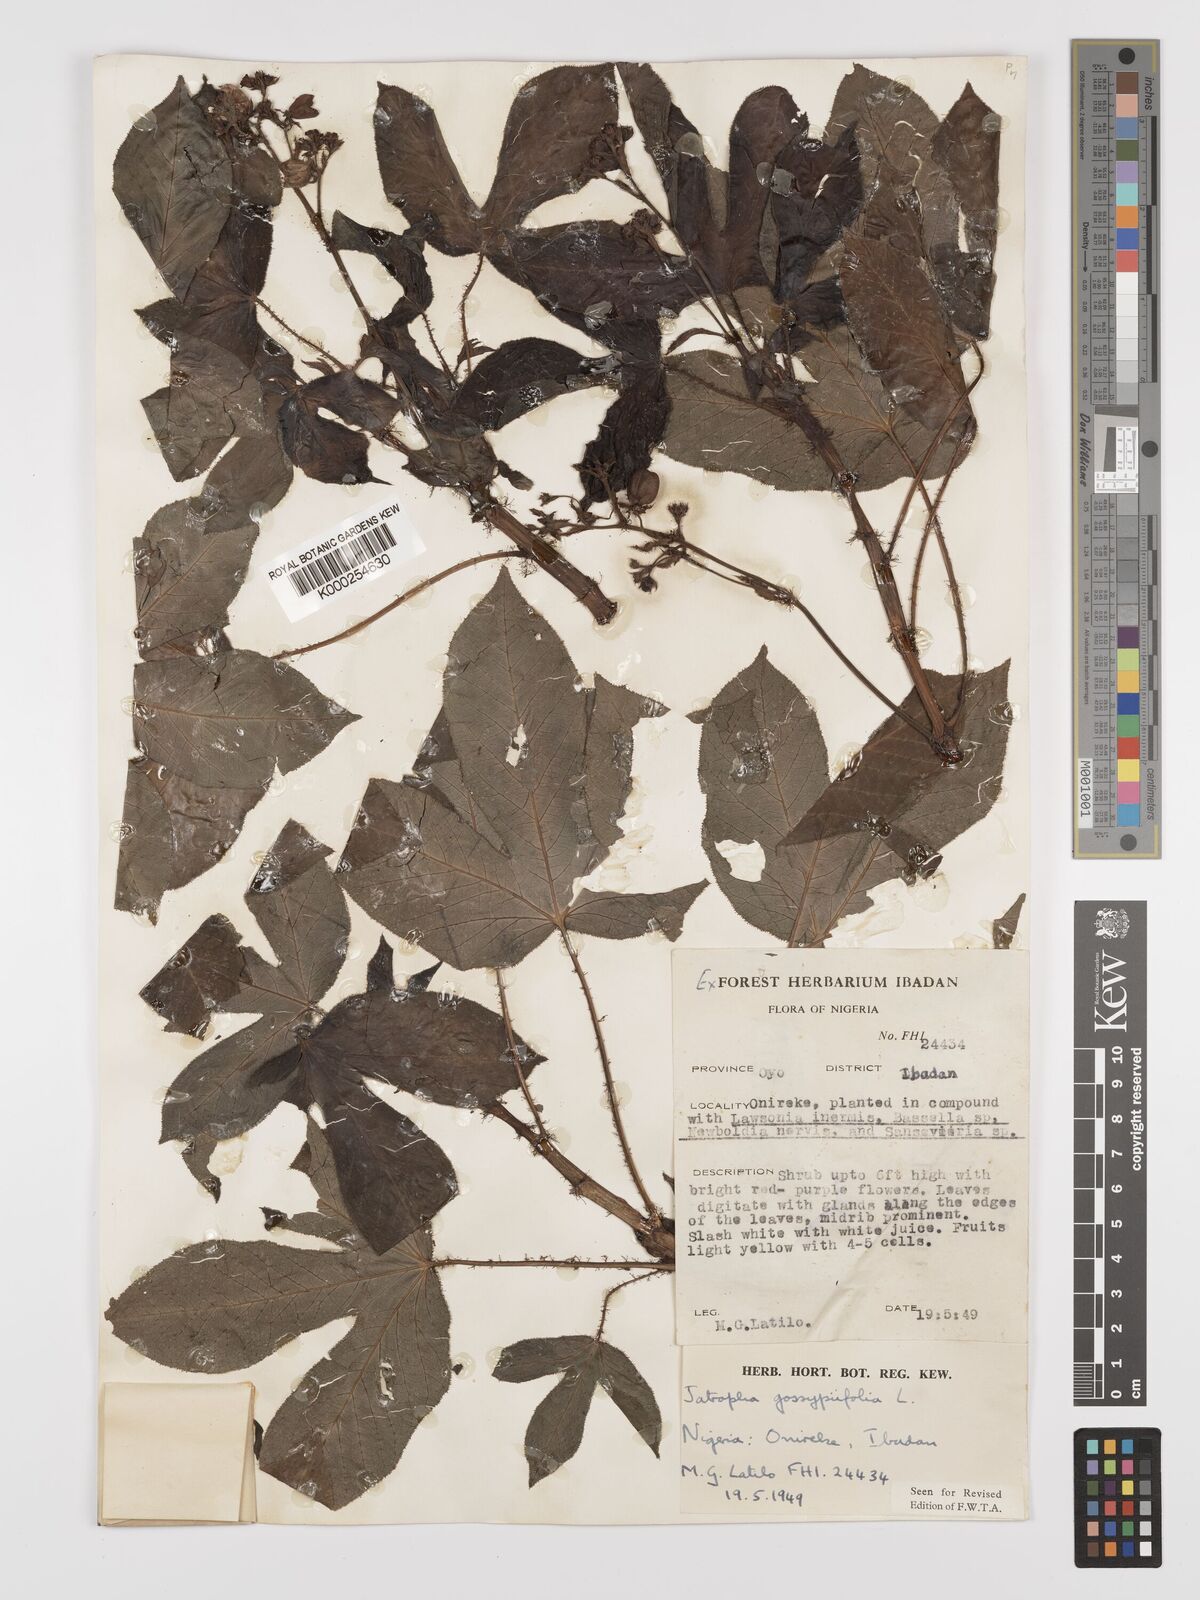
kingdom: Plantae
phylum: Tracheophyta
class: Magnoliopsida
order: Malpighiales
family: Euphorbiaceae
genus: Jatropha
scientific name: Jatropha gossypiifolia
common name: Bellyache bush
